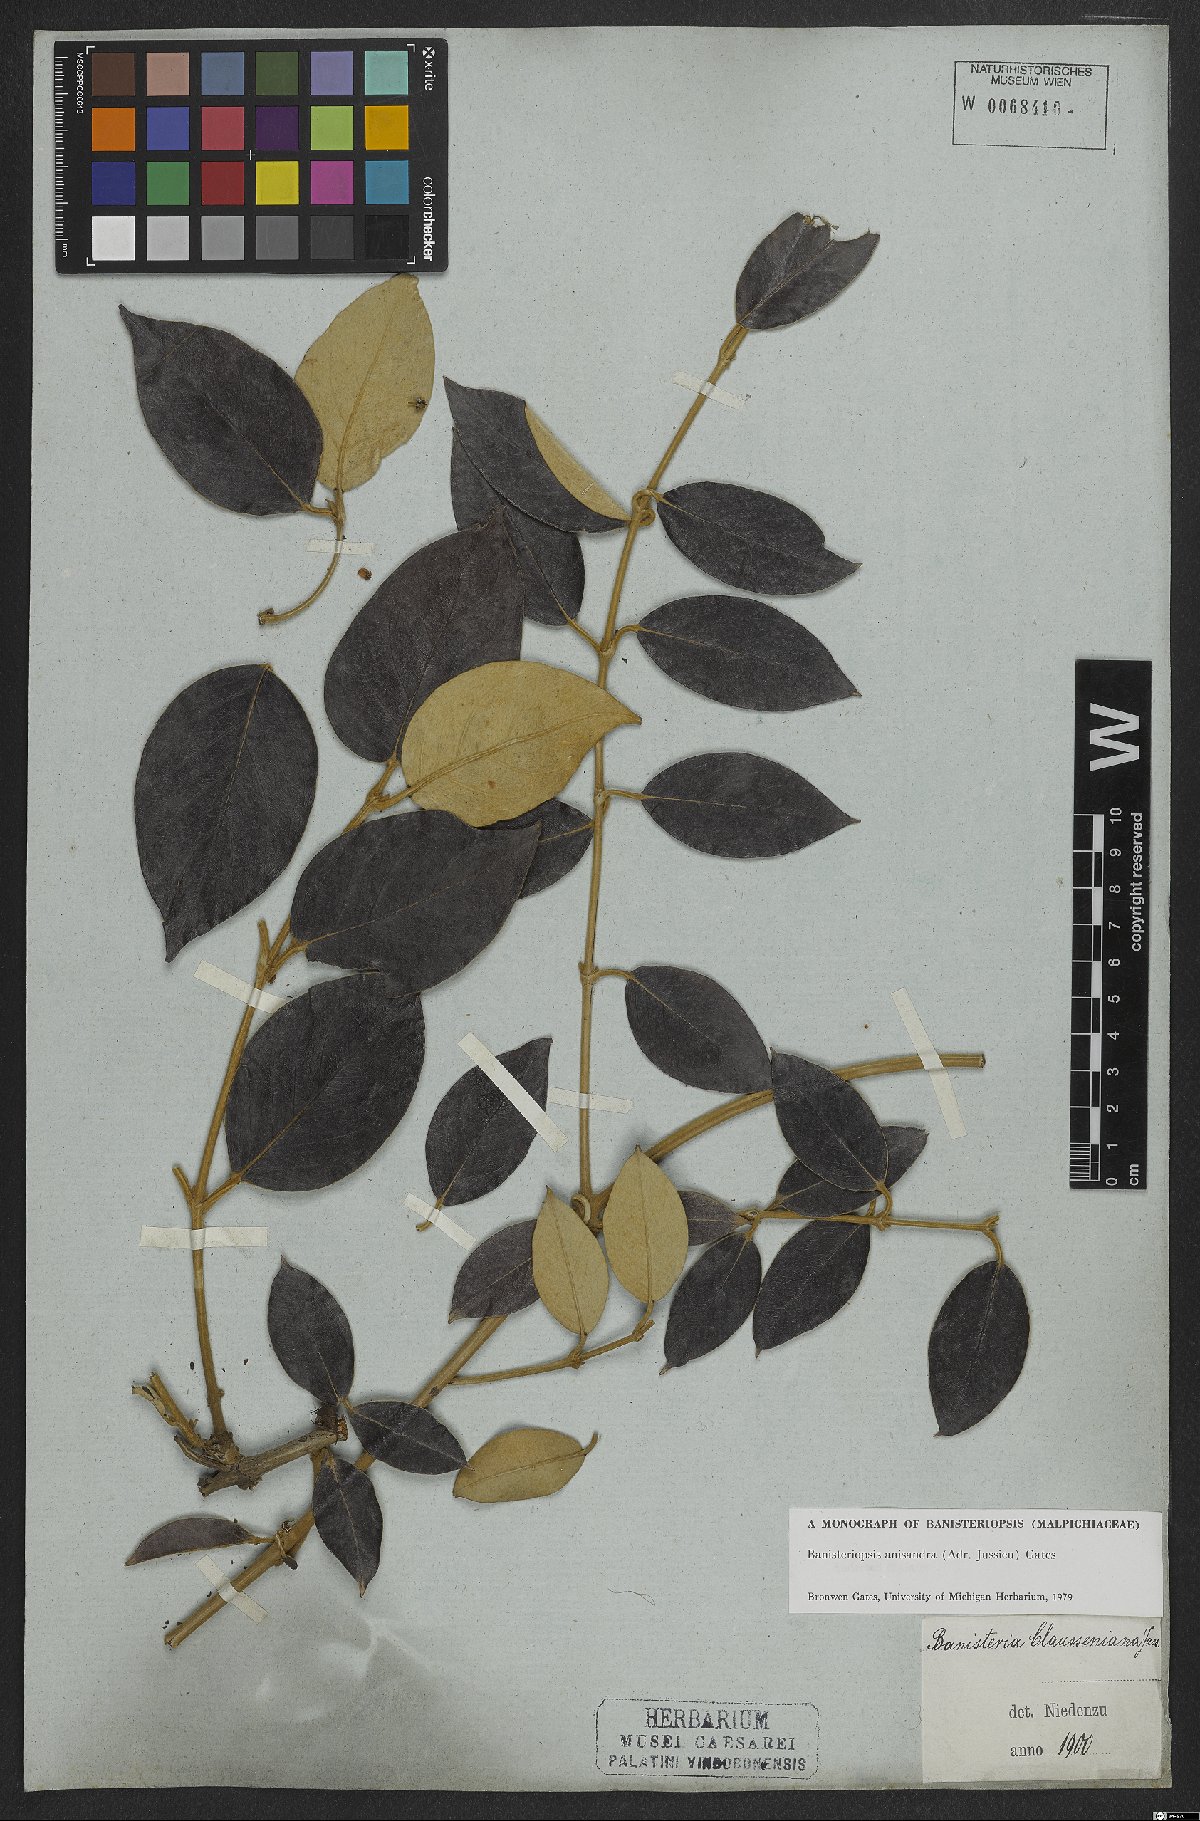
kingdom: Plantae
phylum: Tracheophyta
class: Magnoliopsida
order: Malpighiales
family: Malpighiaceae
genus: Banisteriopsis
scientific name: Banisteriopsis anisandra
